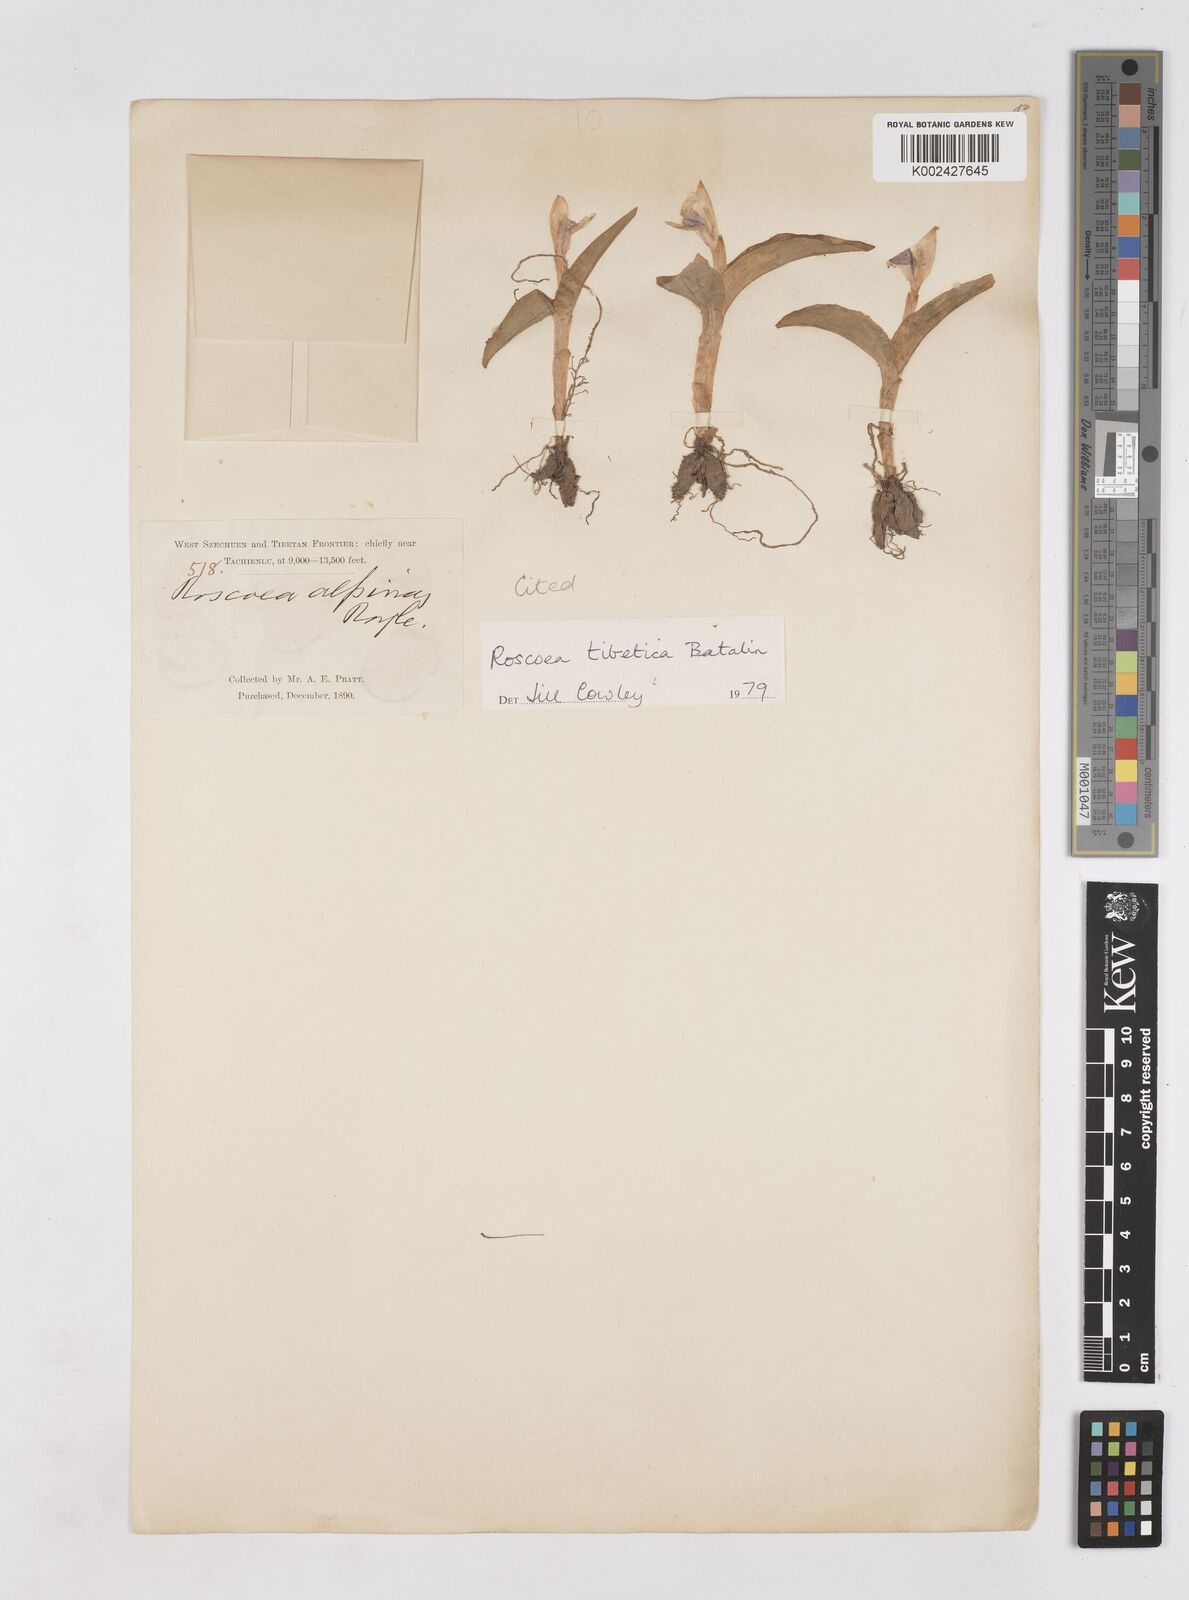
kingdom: Plantae
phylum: Tracheophyta
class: Liliopsida
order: Zingiberales
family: Zingiberaceae
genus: Roscoea
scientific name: Roscoea tibetica
